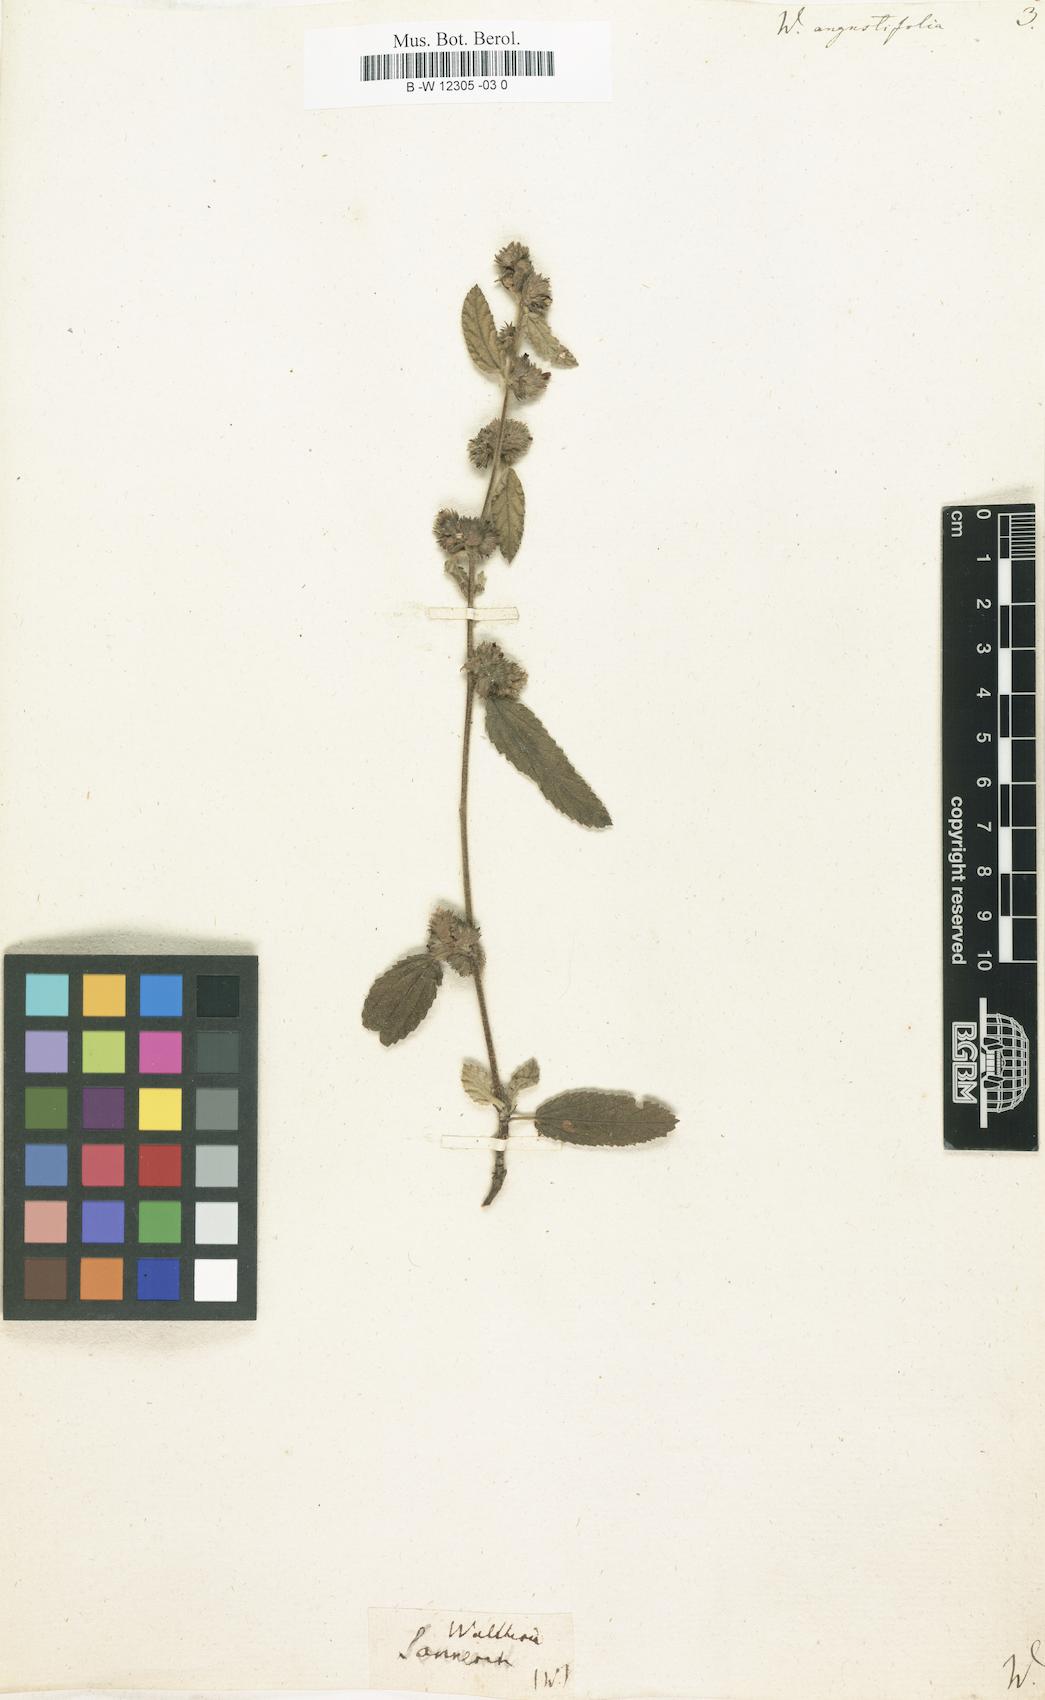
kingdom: Plantae
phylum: Tracheophyta
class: Magnoliopsida
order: Malvales
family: Malvaceae
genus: Melochia
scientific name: Melochia spicata
